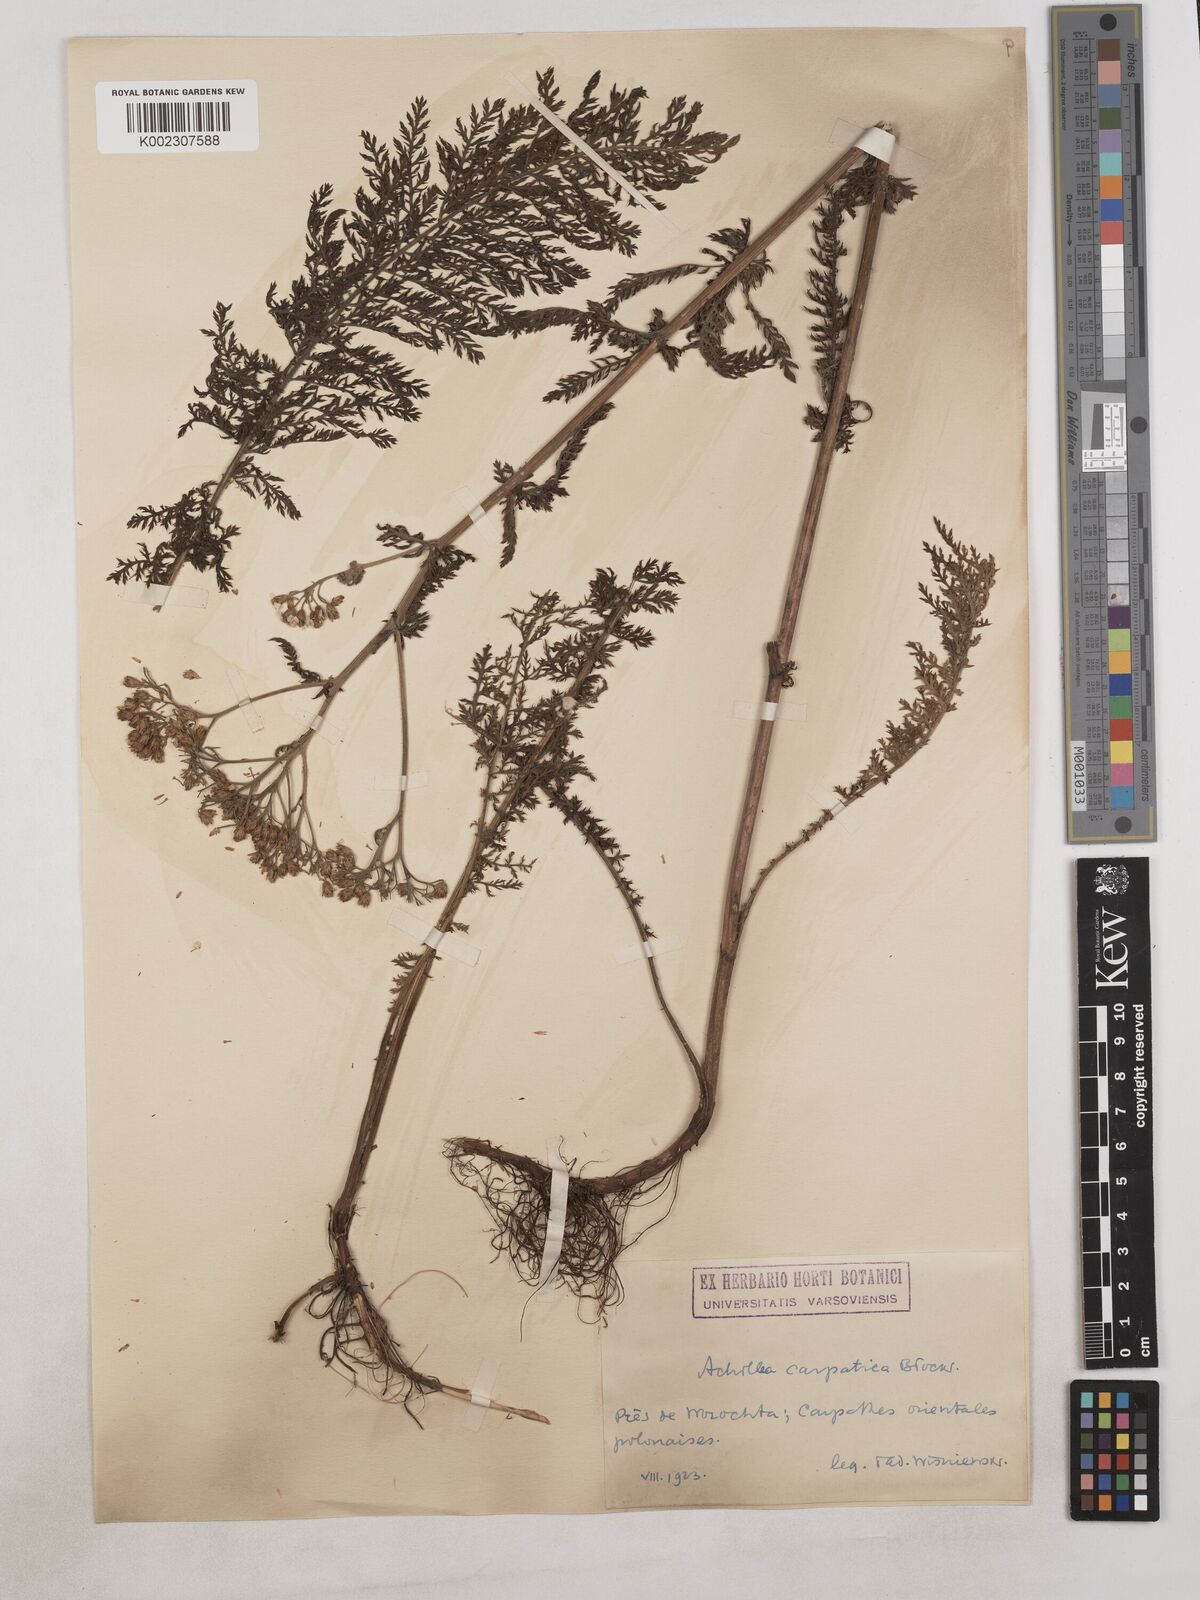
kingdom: Plantae
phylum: Tracheophyta
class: Magnoliopsida
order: Asterales
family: Asteraceae
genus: Achillea
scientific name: Achillea carpatica
